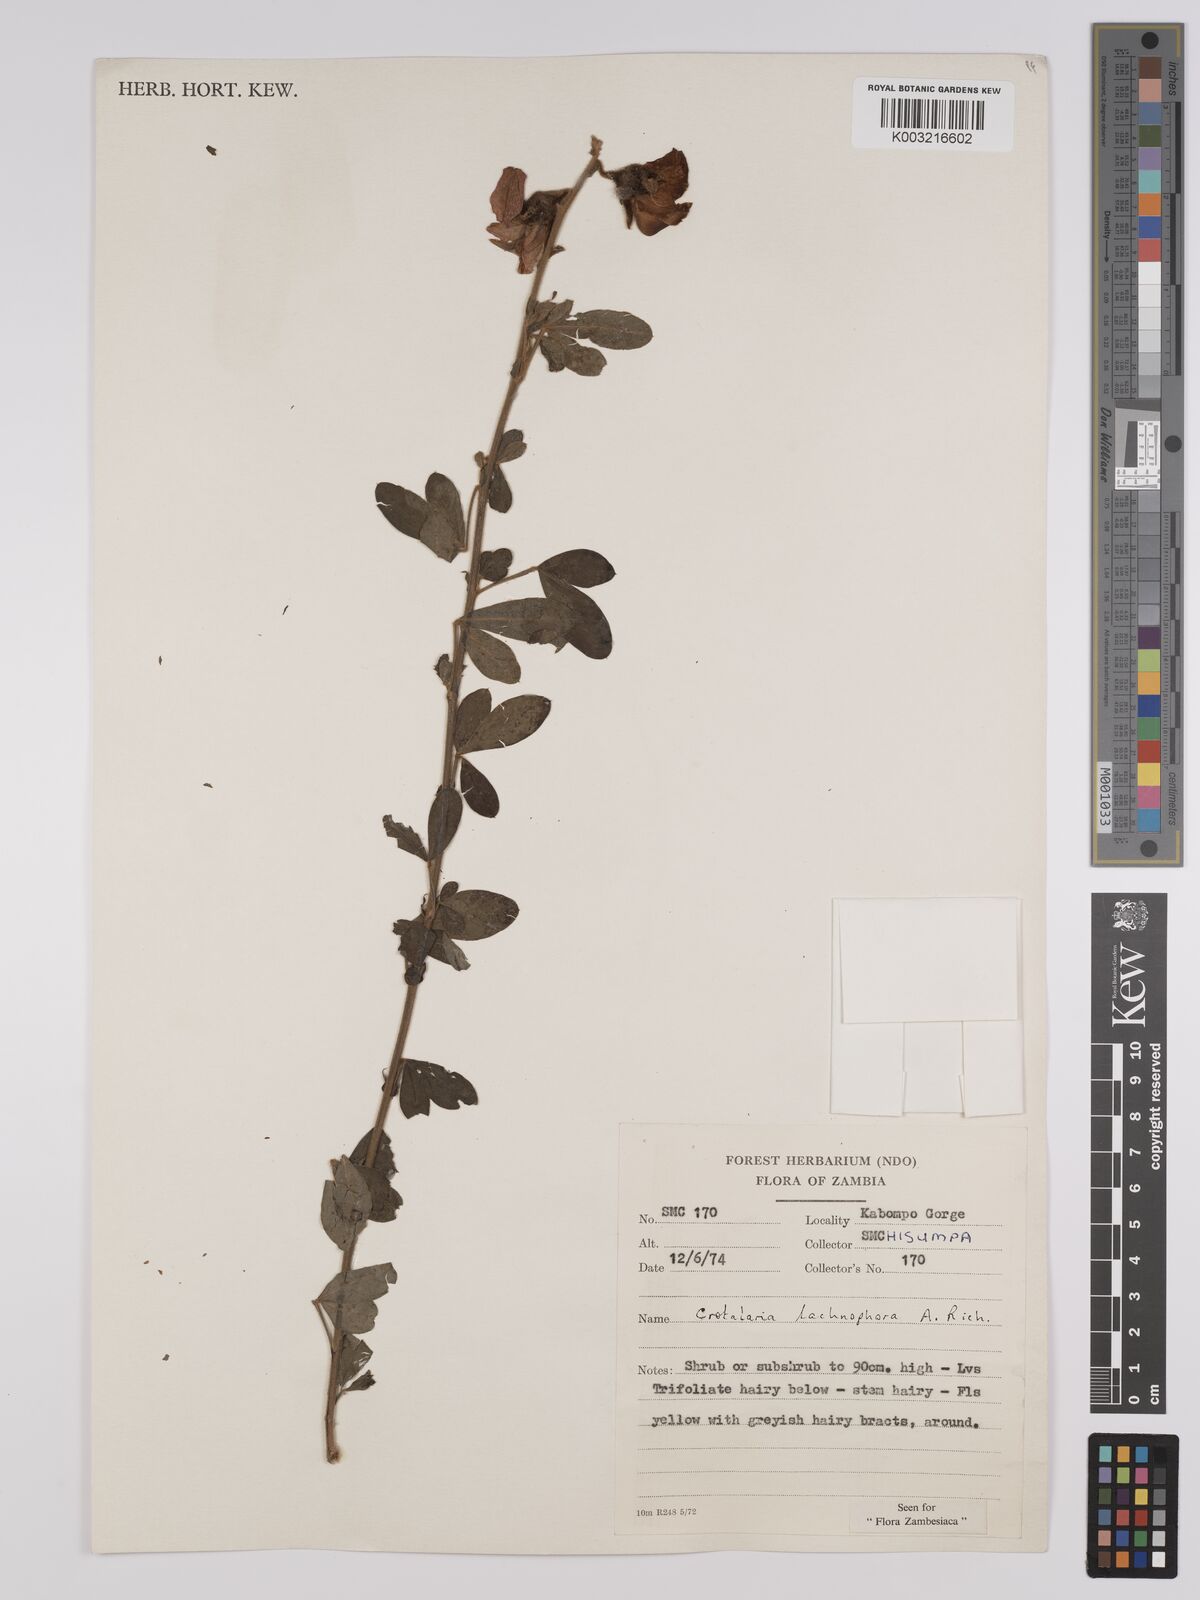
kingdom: Plantae
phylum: Tracheophyta
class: Magnoliopsida
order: Fabales
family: Fabaceae
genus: Crotalaria
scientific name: Crotalaria lachnophora
